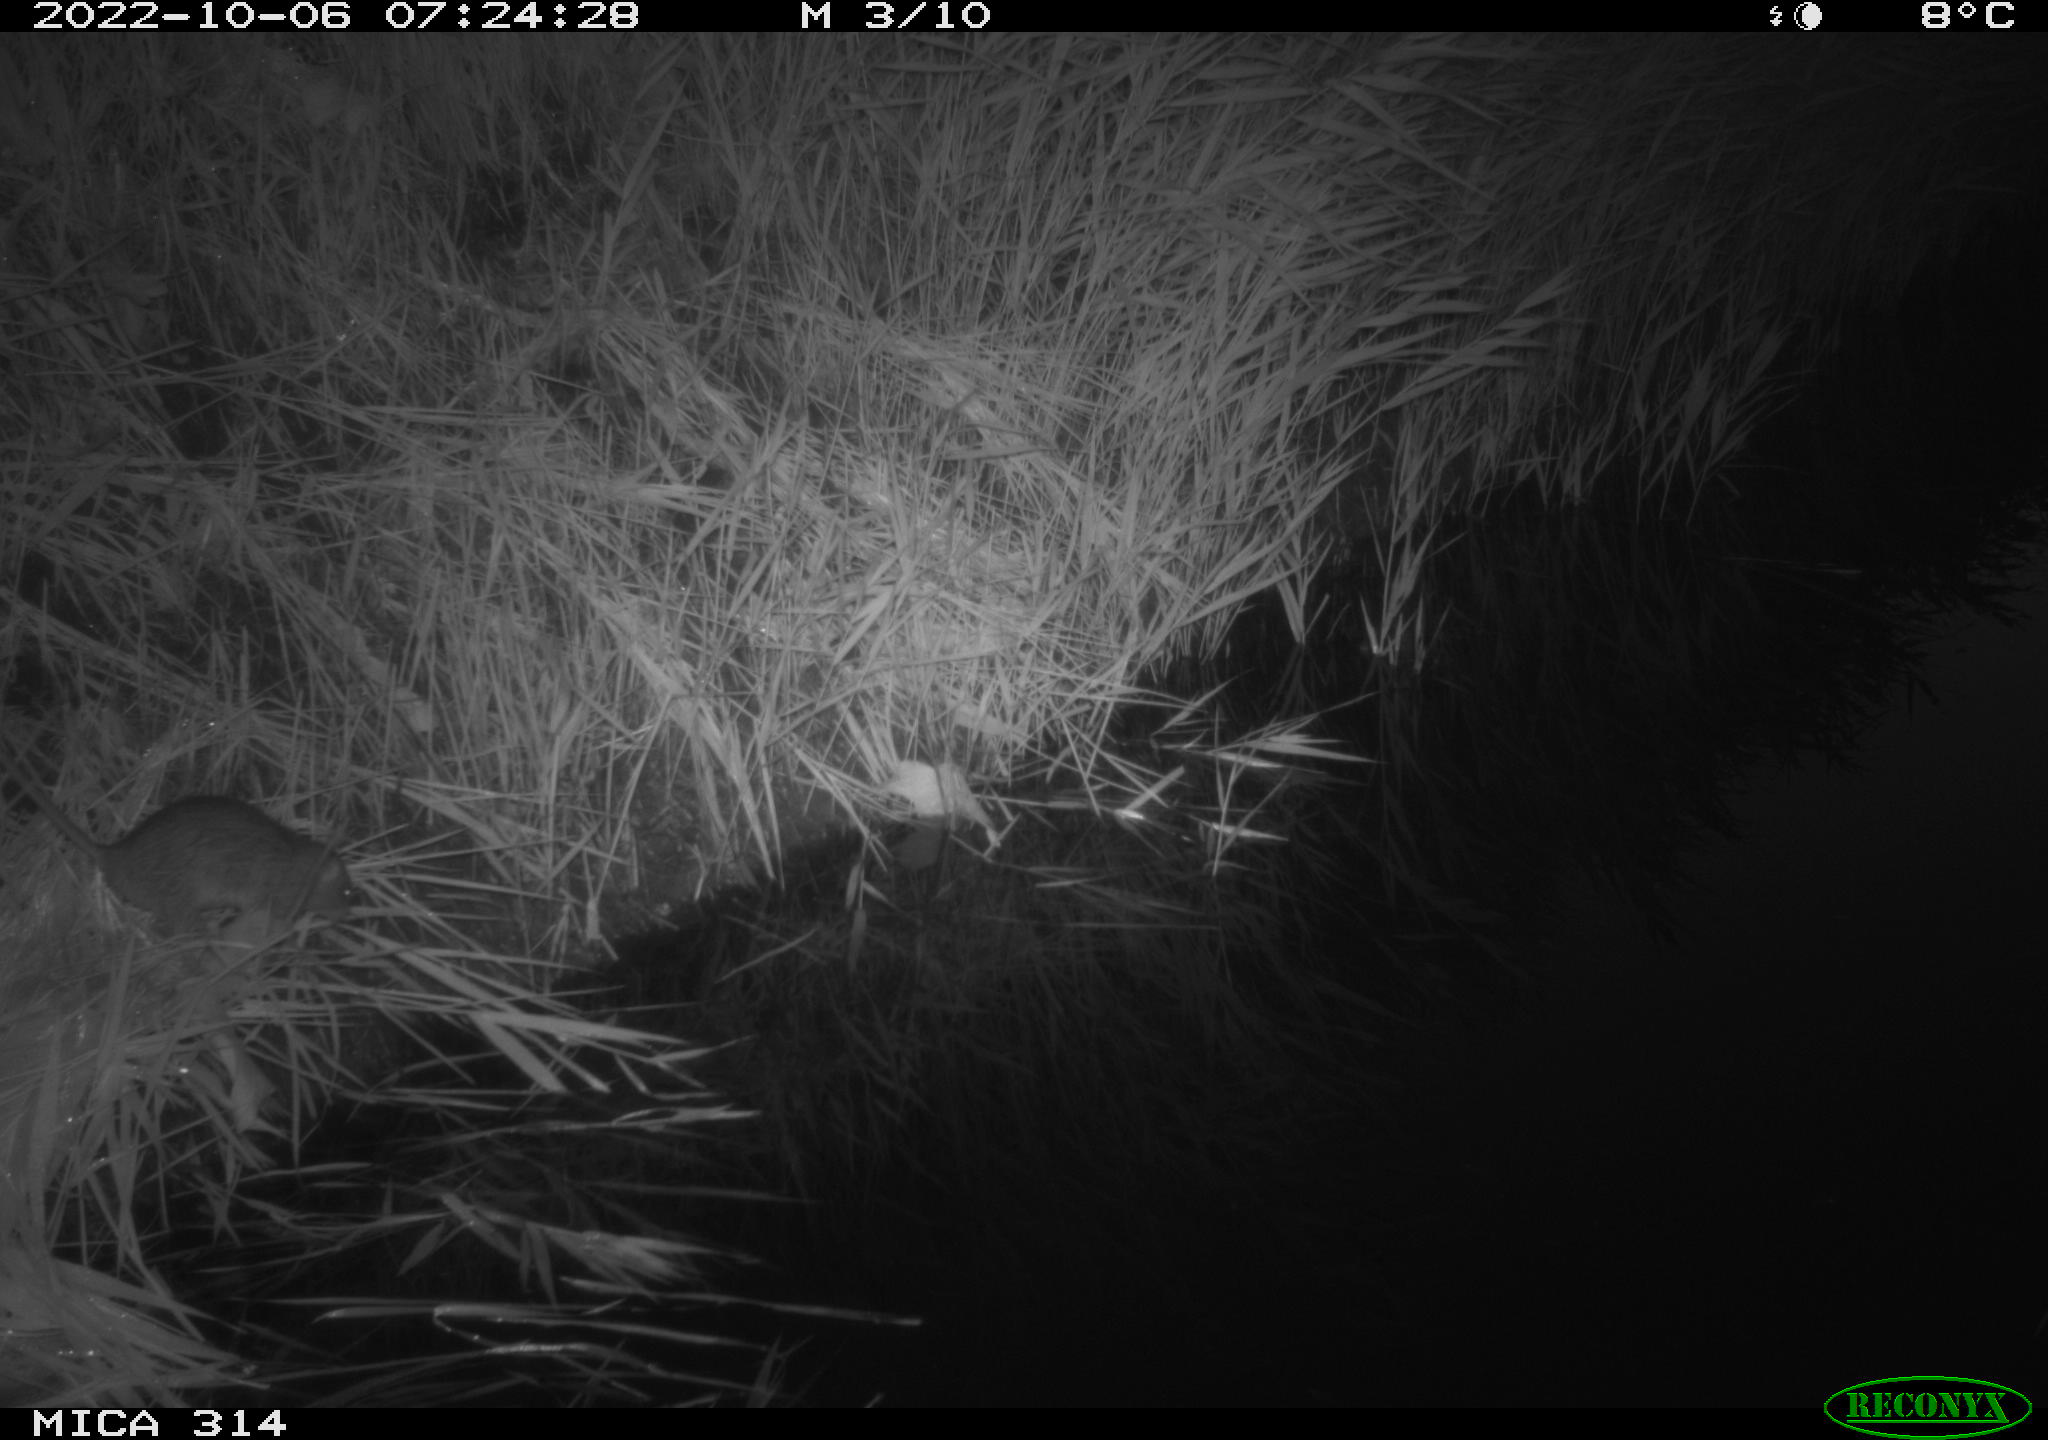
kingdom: Animalia
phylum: Chordata
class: Mammalia
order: Rodentia
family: Muridae
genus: Rattus
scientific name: Rattus norvegicus
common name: Brown rat
